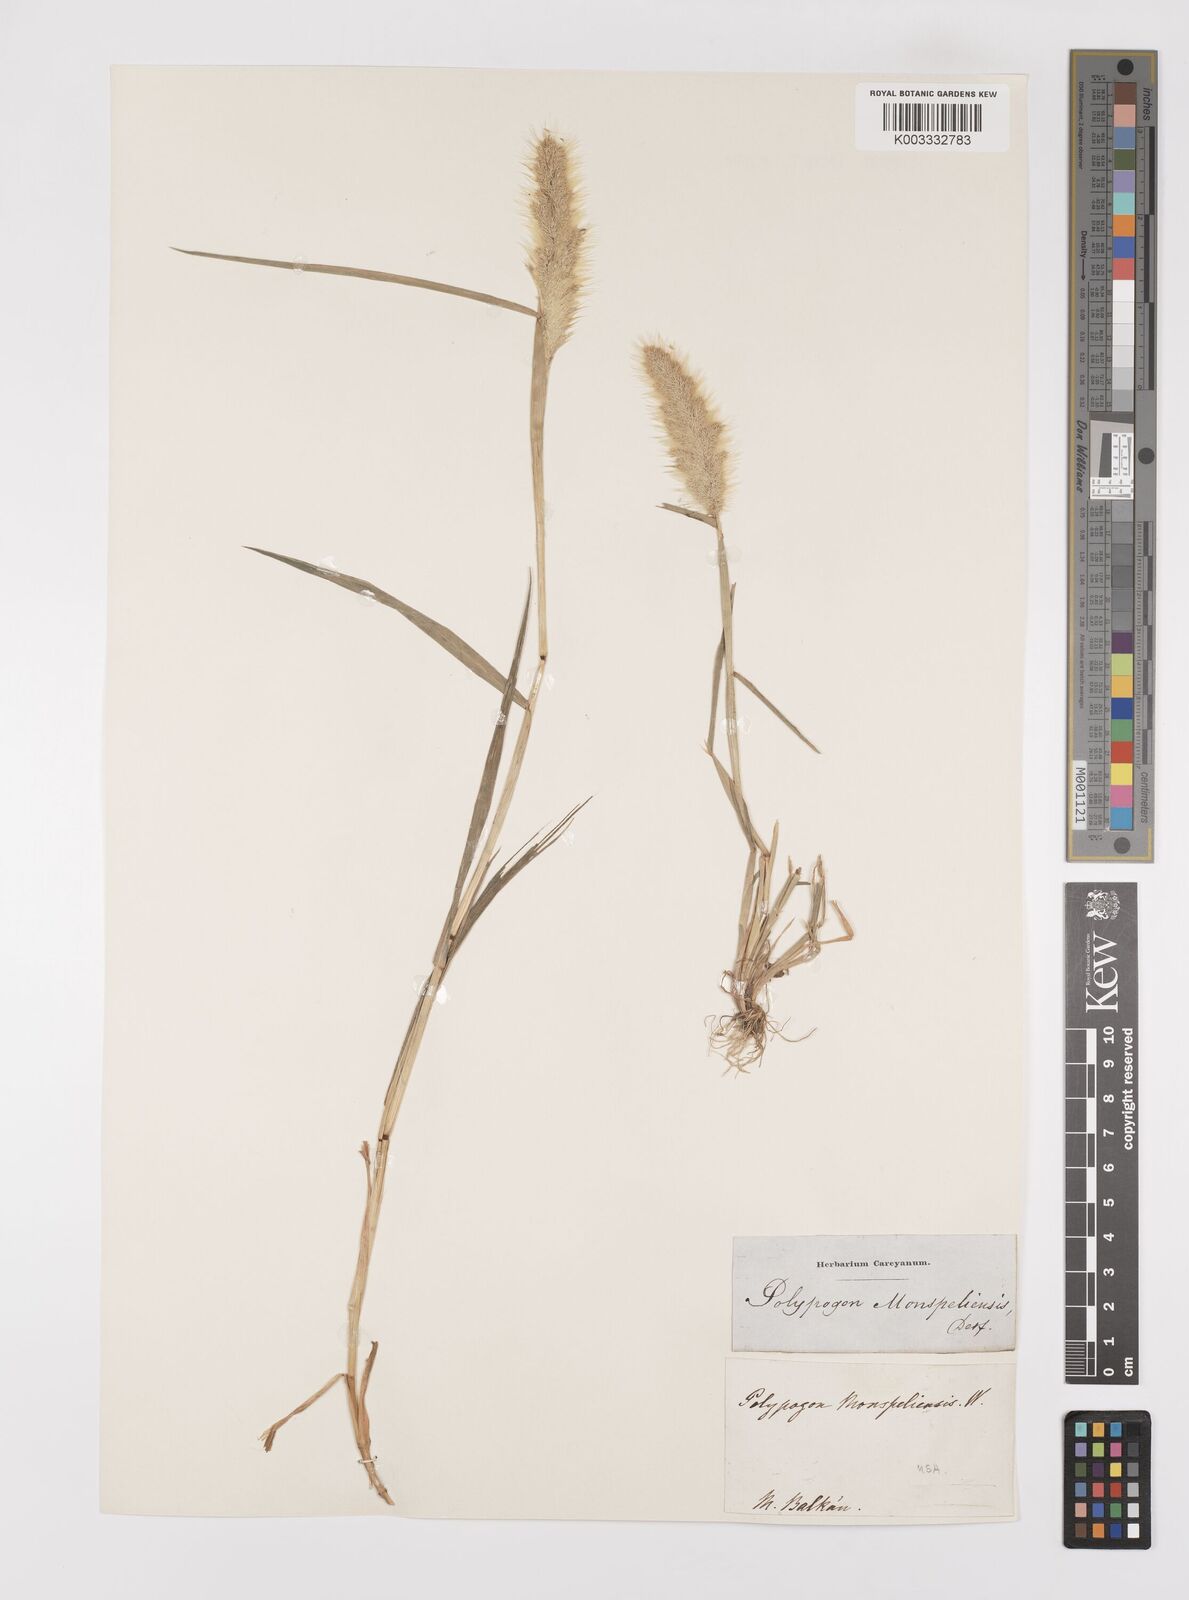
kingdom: Plantae
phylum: Tracheophyta
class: Liliopsida
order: Poales
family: Poaceae
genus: Polypogon
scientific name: Polypogon monspeliensis
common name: Annual rabbitsfoot grass
